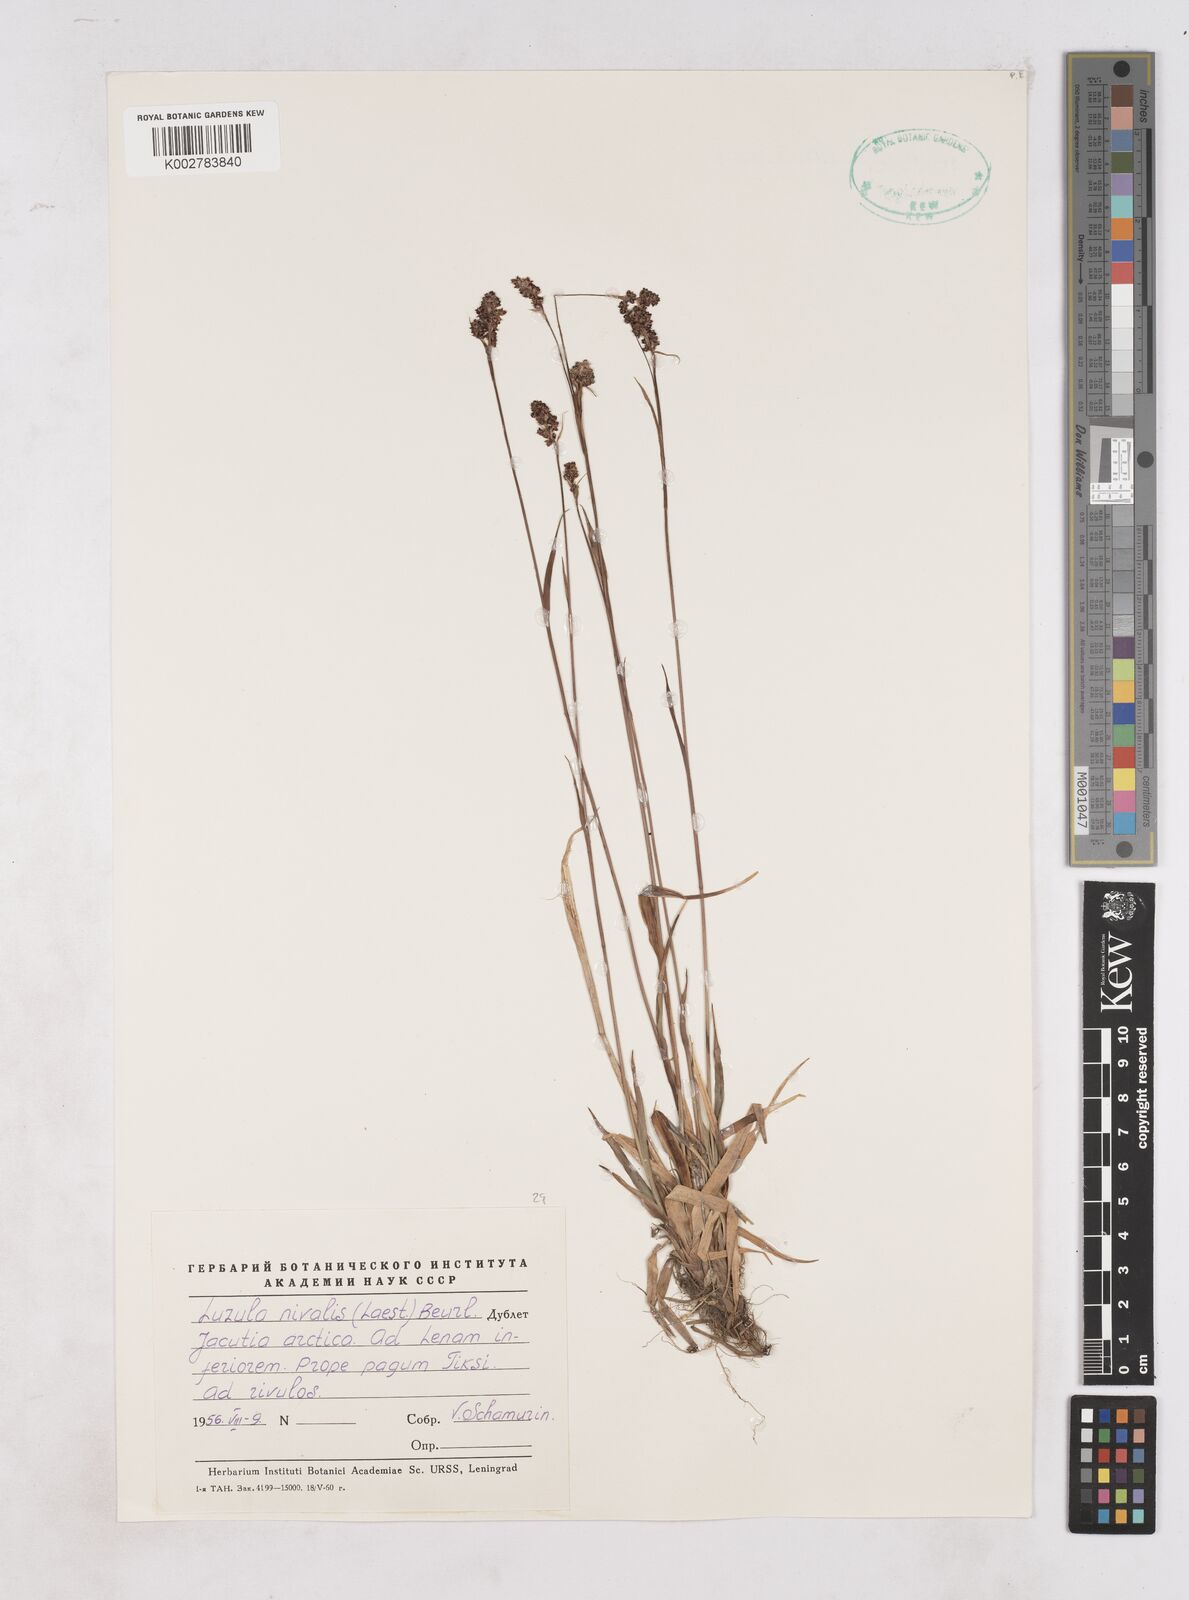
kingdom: Plantae
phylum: Tracheophyta
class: Liliopsida
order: Poales
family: Juncaceae
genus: Luzula
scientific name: Luzula nivalis
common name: Arctic woodrush
